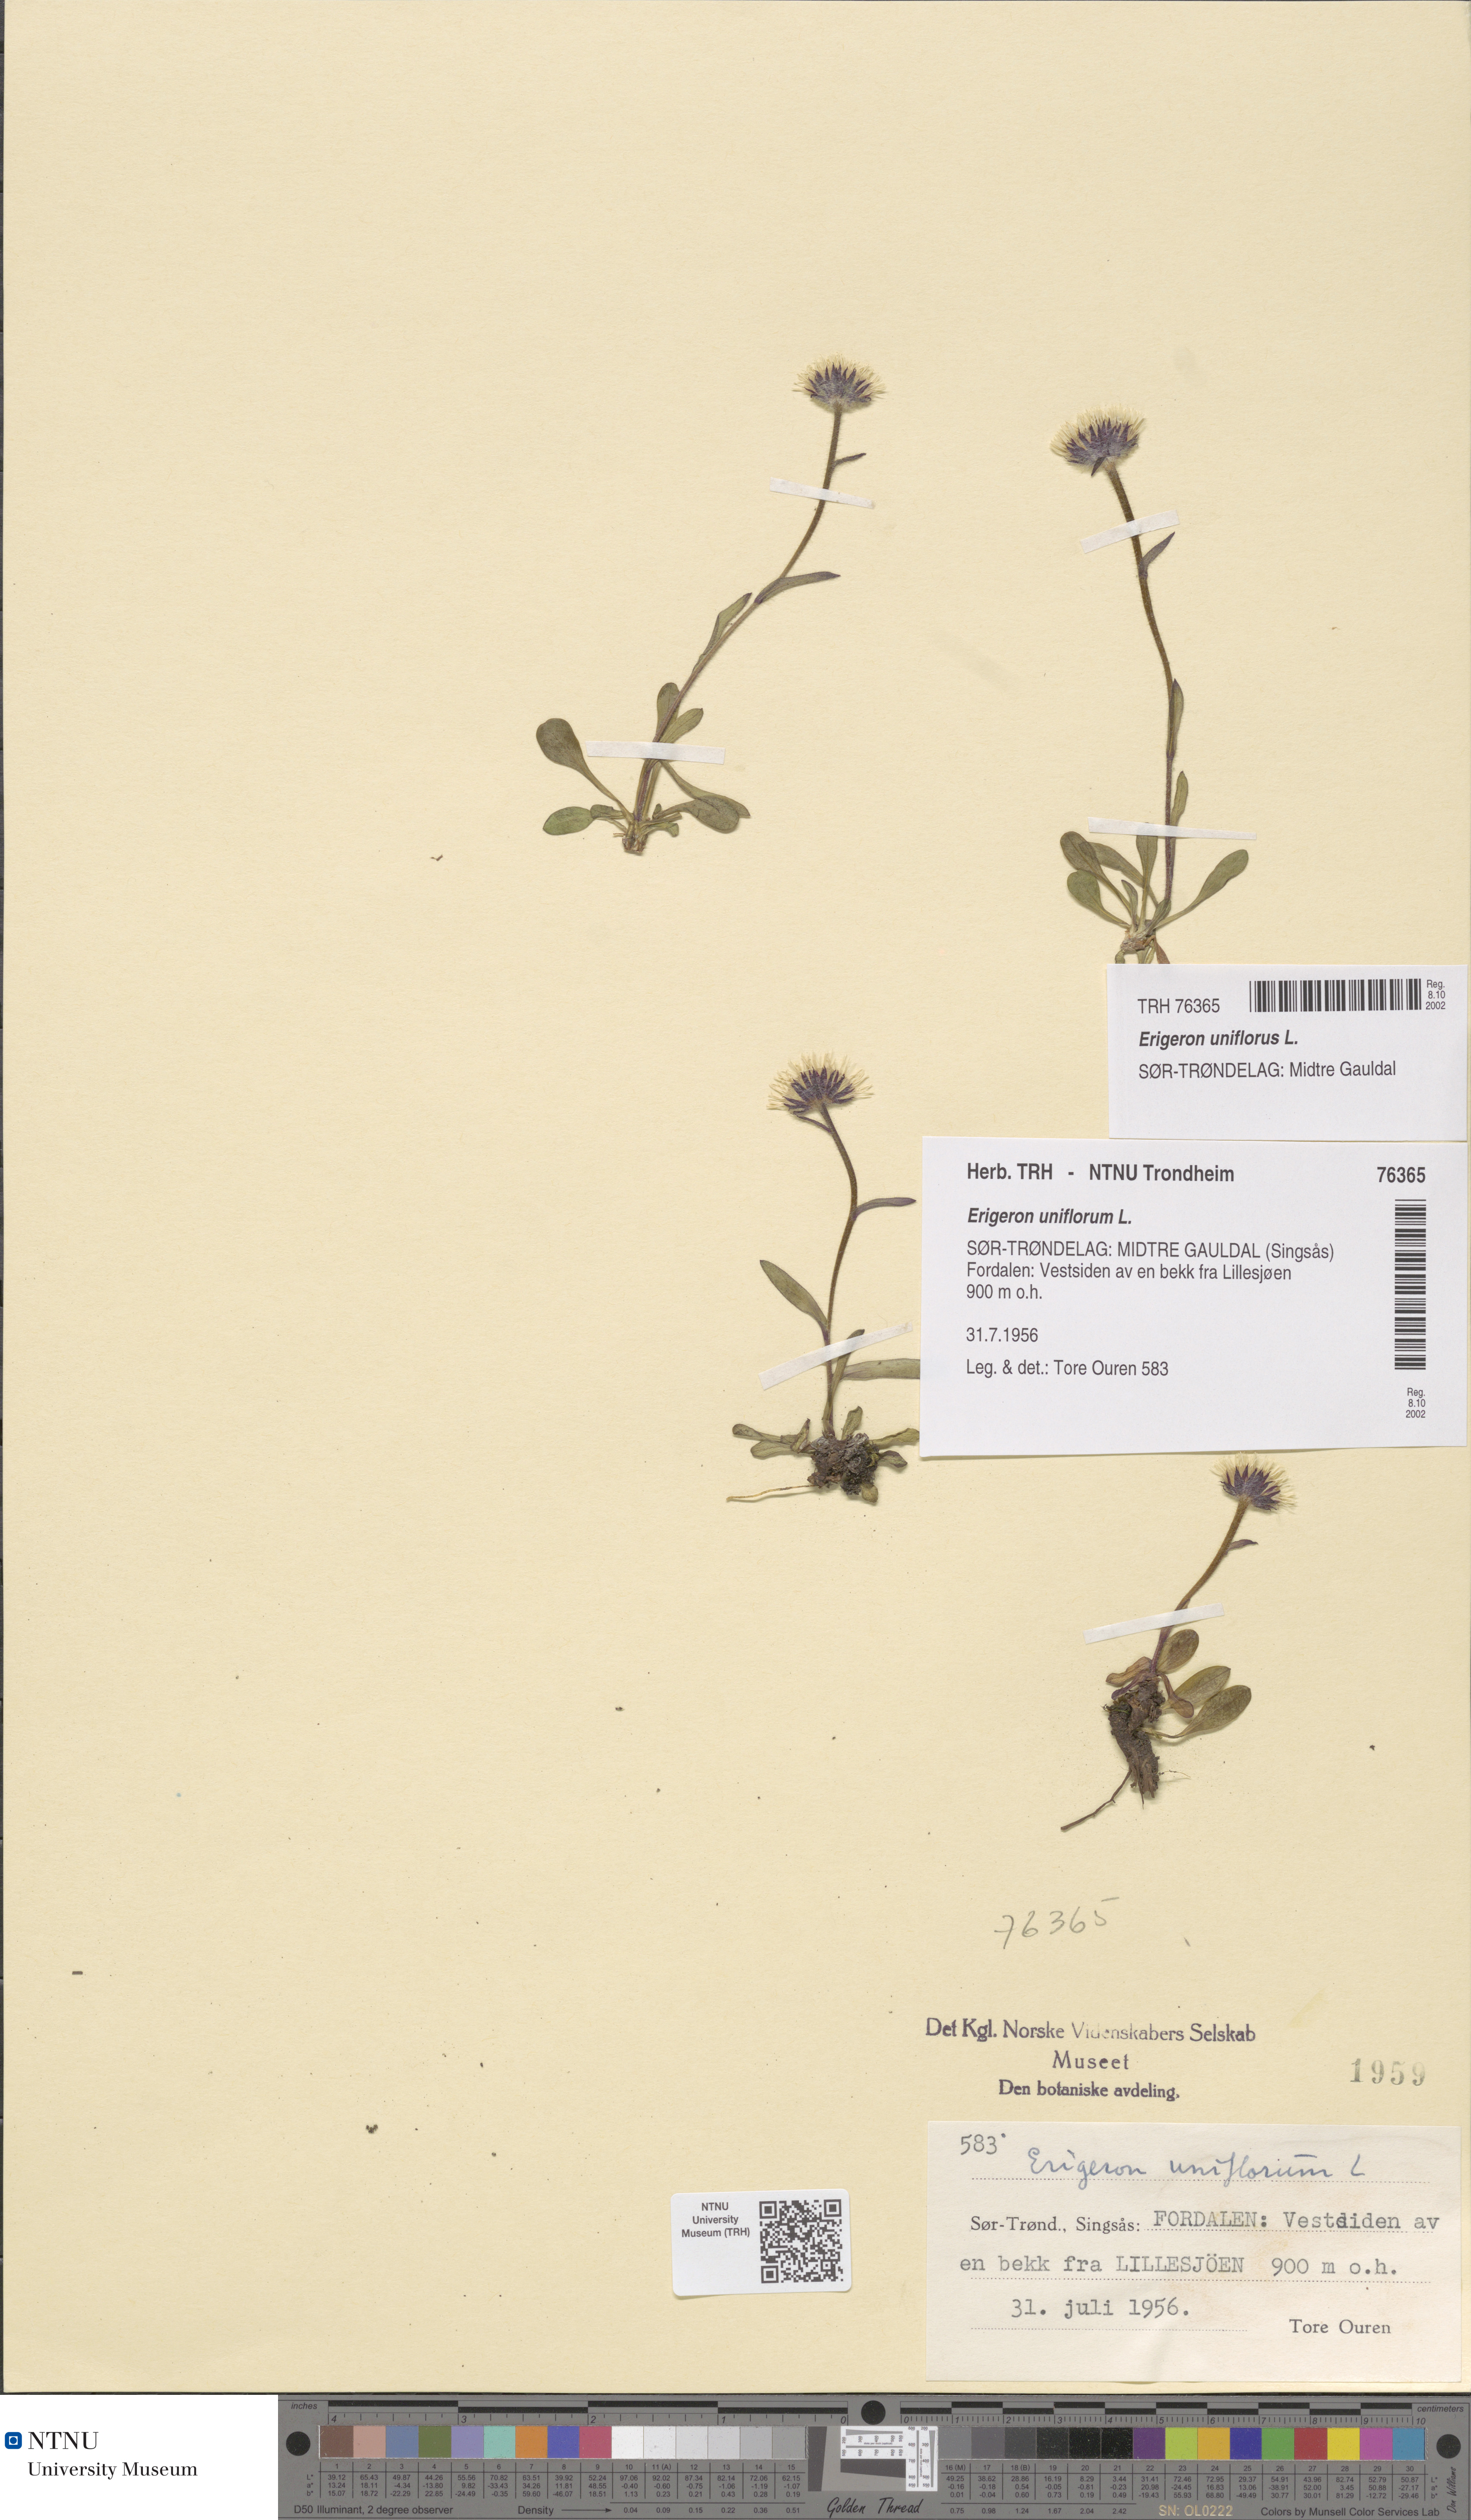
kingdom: Plantae
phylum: Tracheophyta
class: Magnoliopsida
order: Asterales
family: Asteraceae
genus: Erigeron
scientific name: Erigeron uniflorus
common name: Northern daisy
